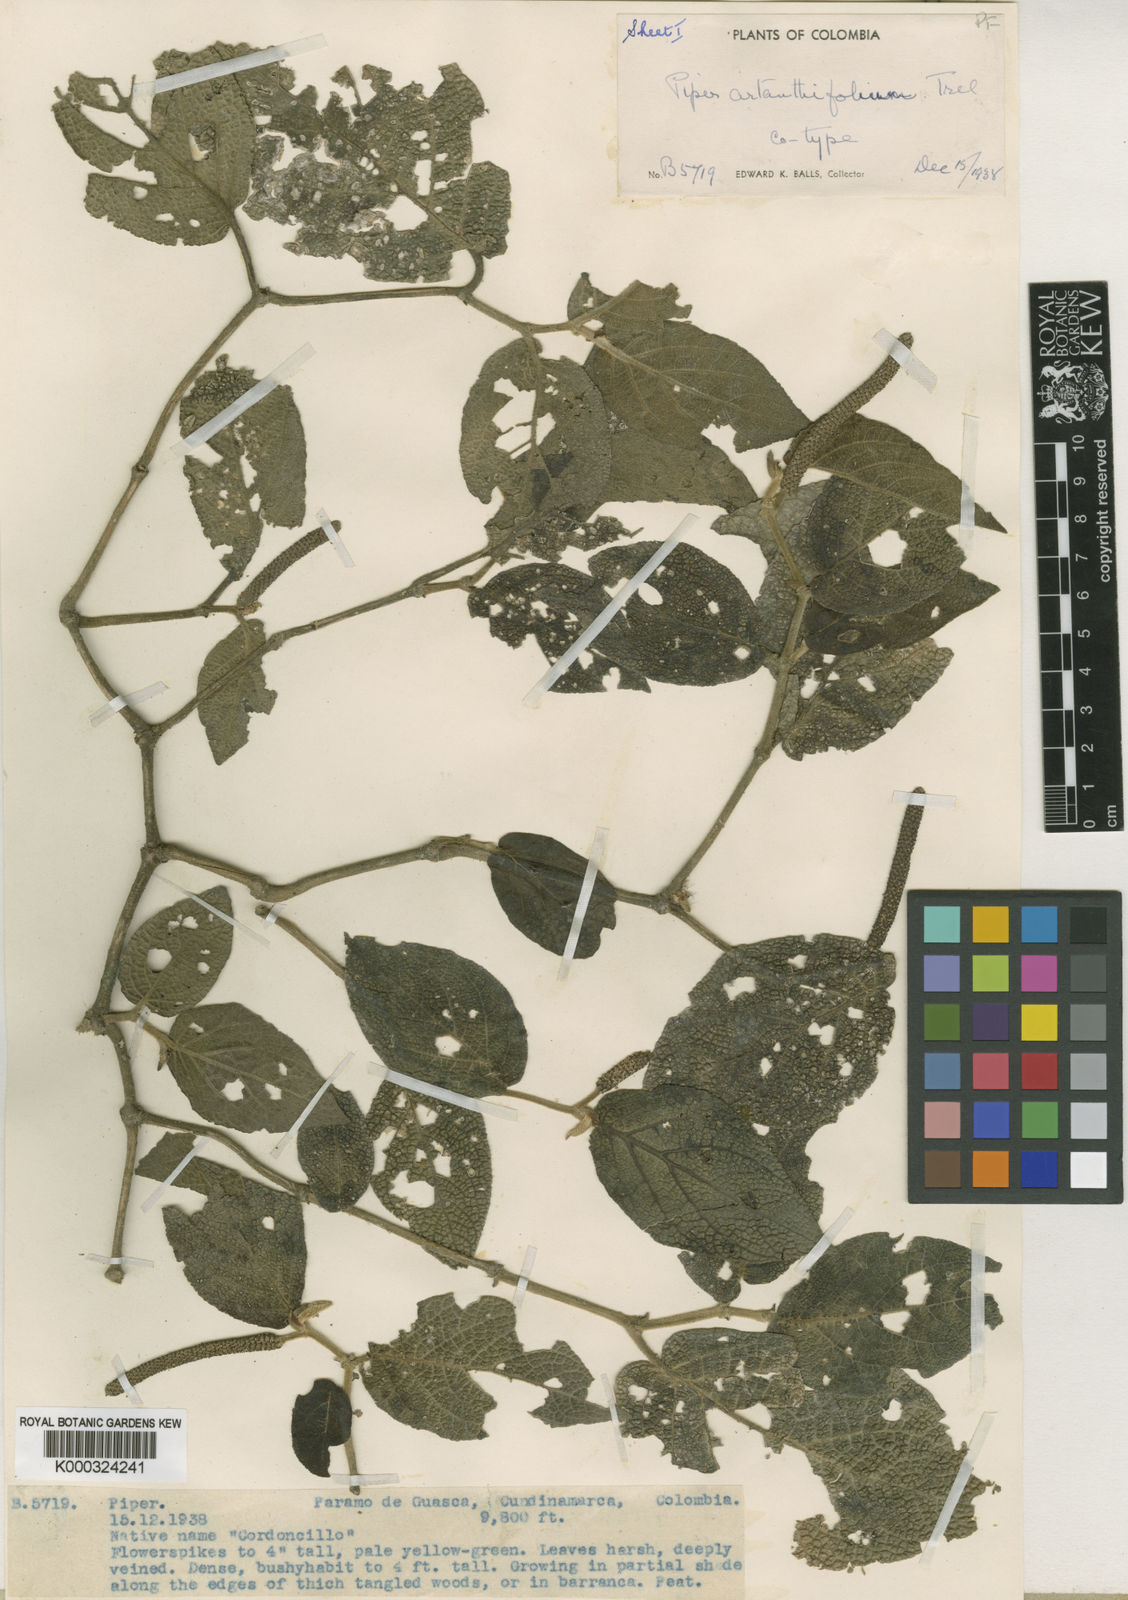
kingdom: Plantae
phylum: Tracheophyta
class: Magnoliopsida
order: Piperales
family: Piperaceae
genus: Piper
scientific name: Piper
